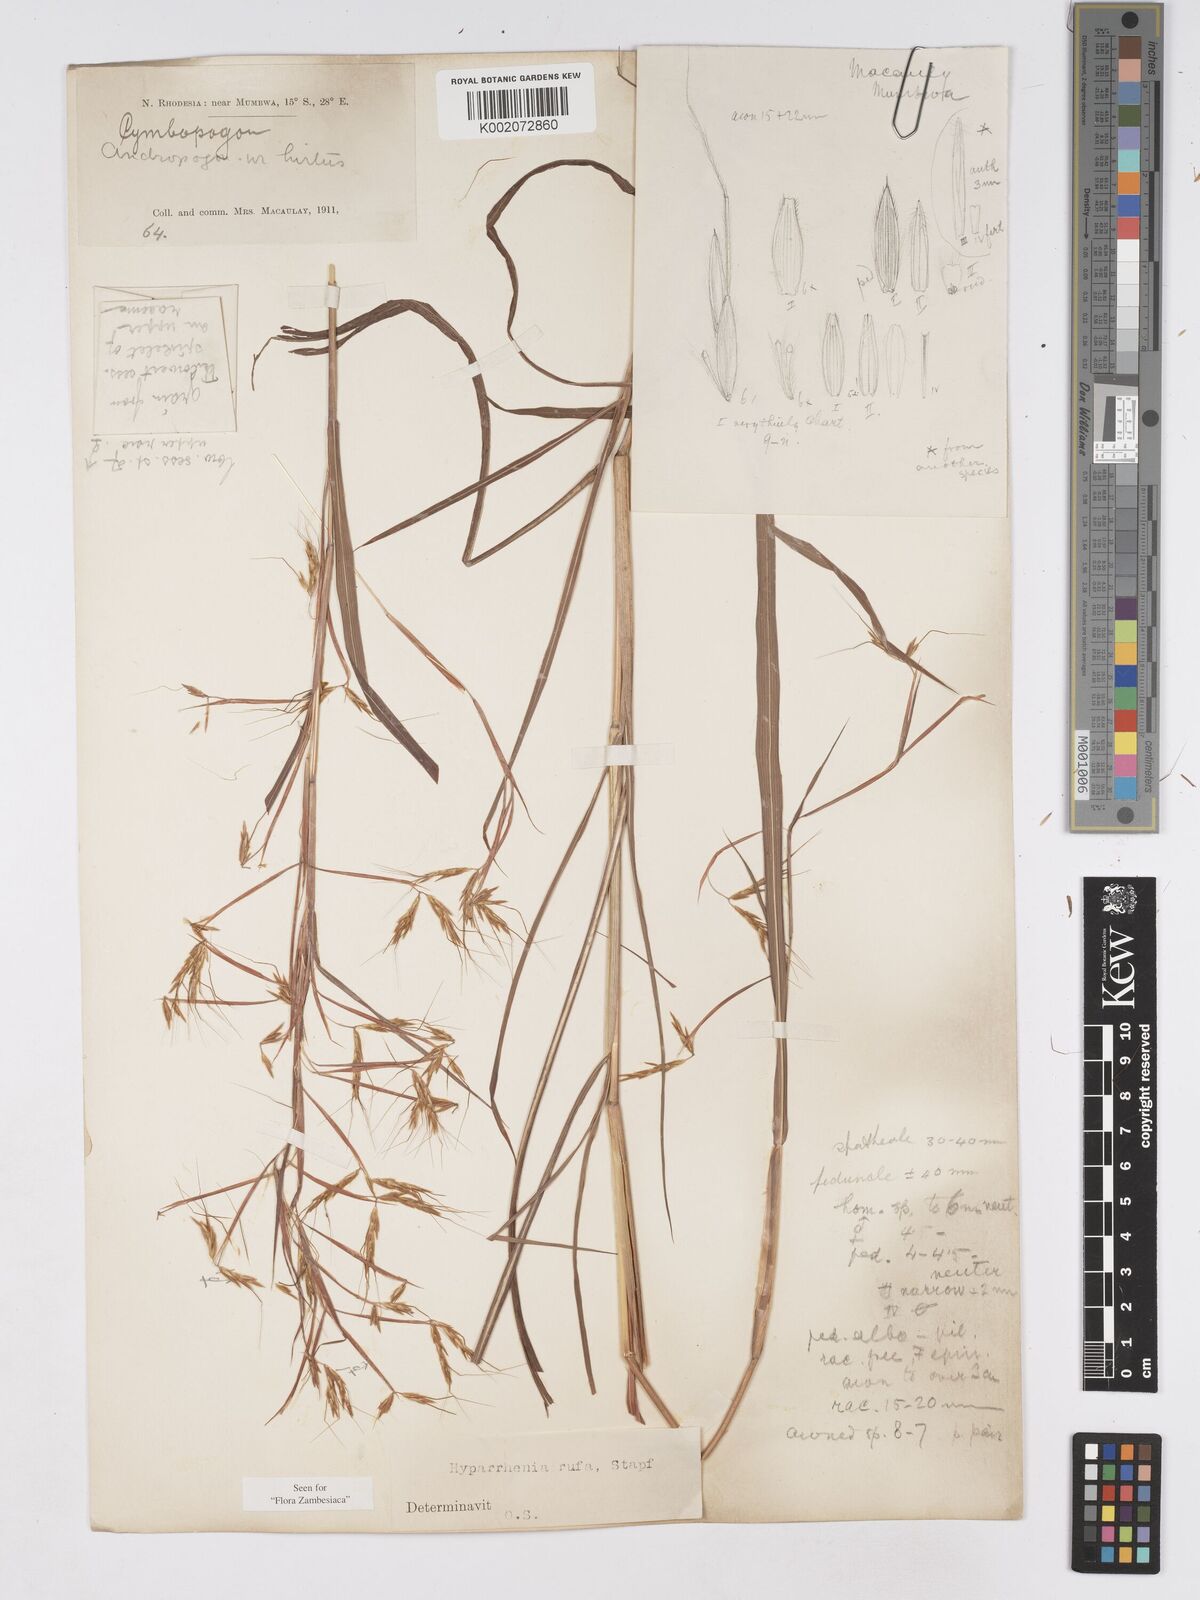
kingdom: Plantae
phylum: Tracheophyta
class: Liliopsida
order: Poales
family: Poaceae
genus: Hyparrhenia
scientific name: Hyparrhenia rufa
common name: Jaraguagrass
